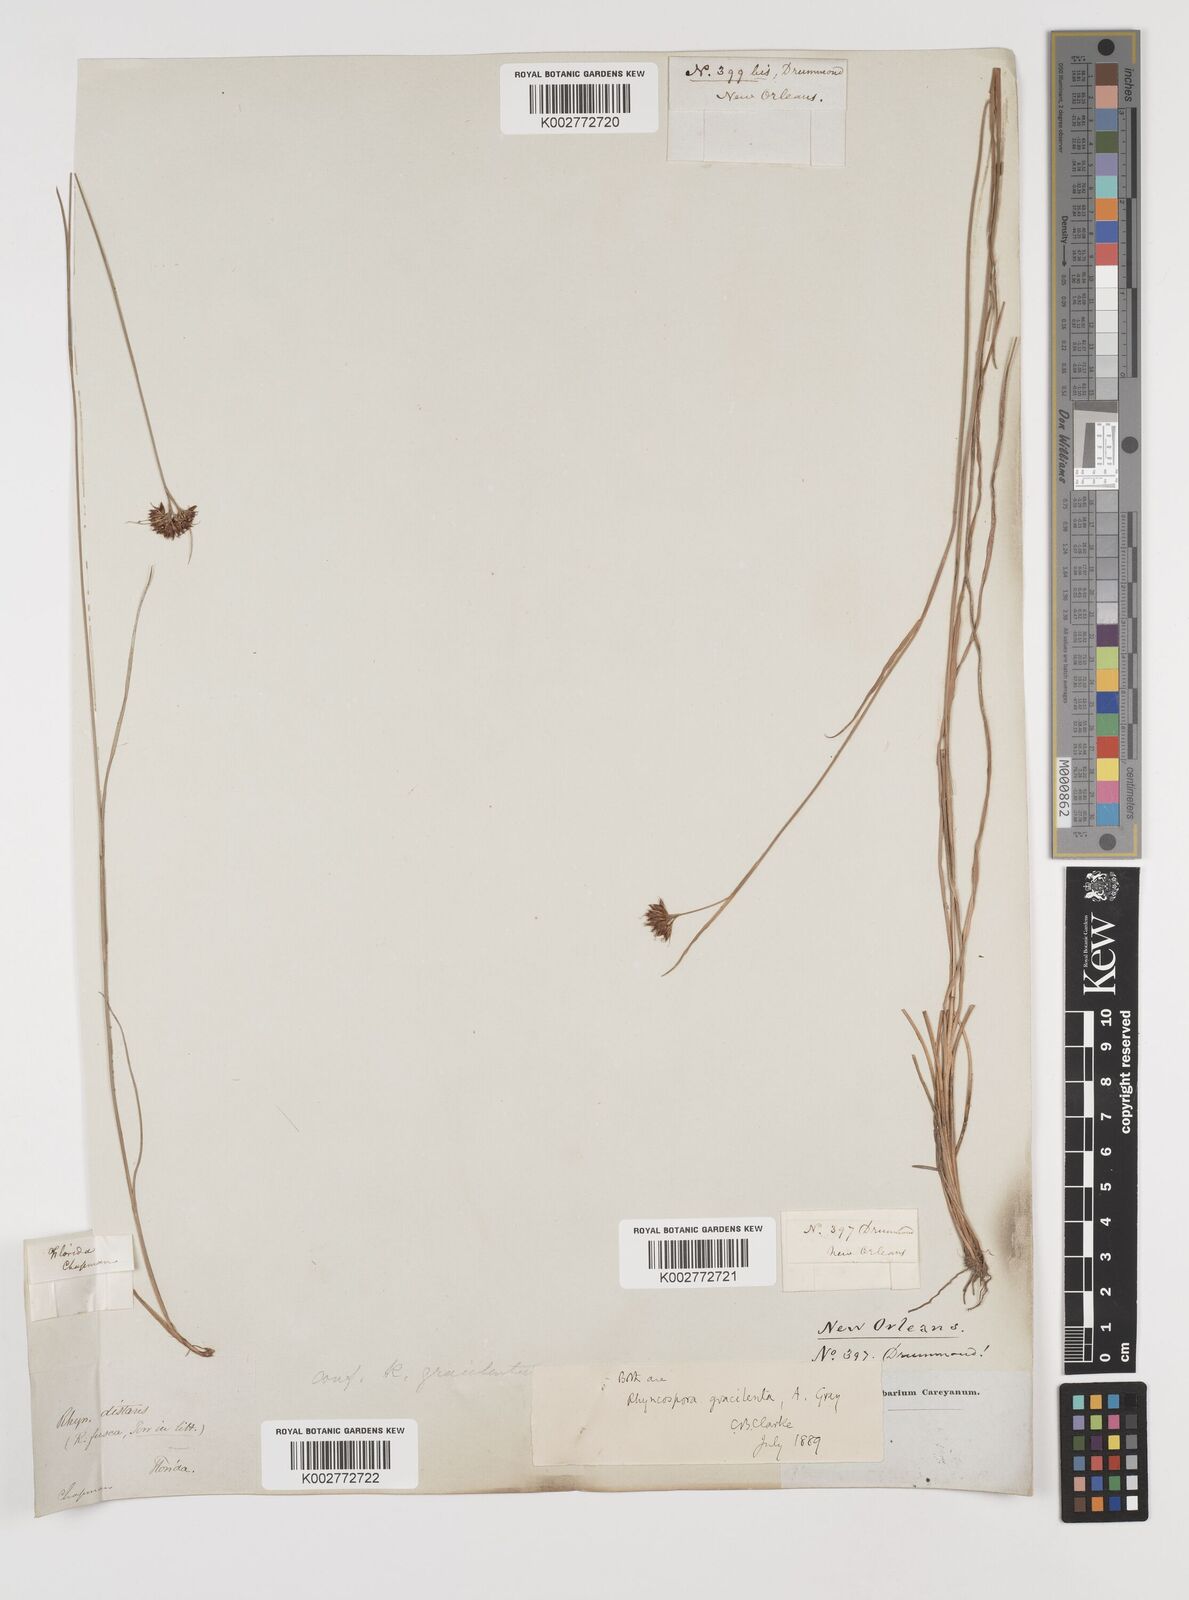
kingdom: Plantae
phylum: Tracheophyta
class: Liliopsida
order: Poales
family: Cyperaceae
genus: Rhynchospora
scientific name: Rhynchospora gracilenta
